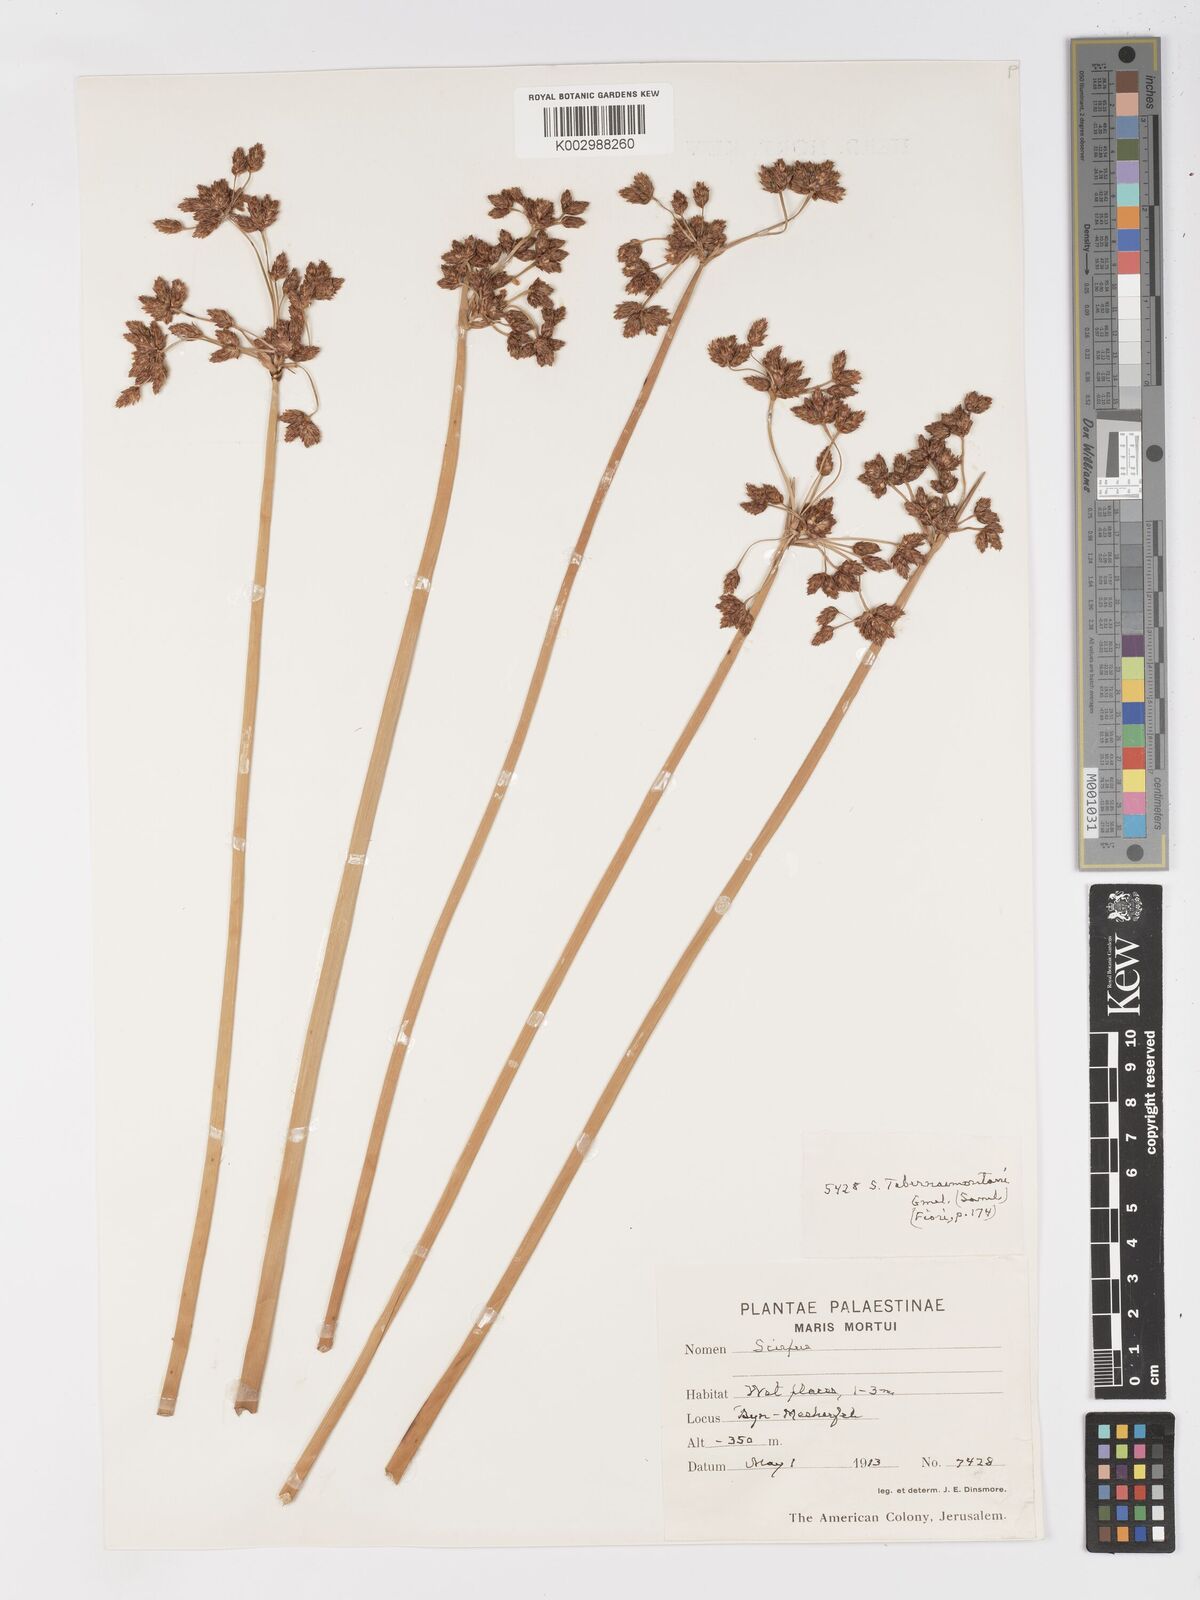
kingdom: Plantae
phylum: Tracheophyta
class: Liliopsida
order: Poales
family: Cyperaceae
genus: Schoenoplectus
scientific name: Schoenoplectus
